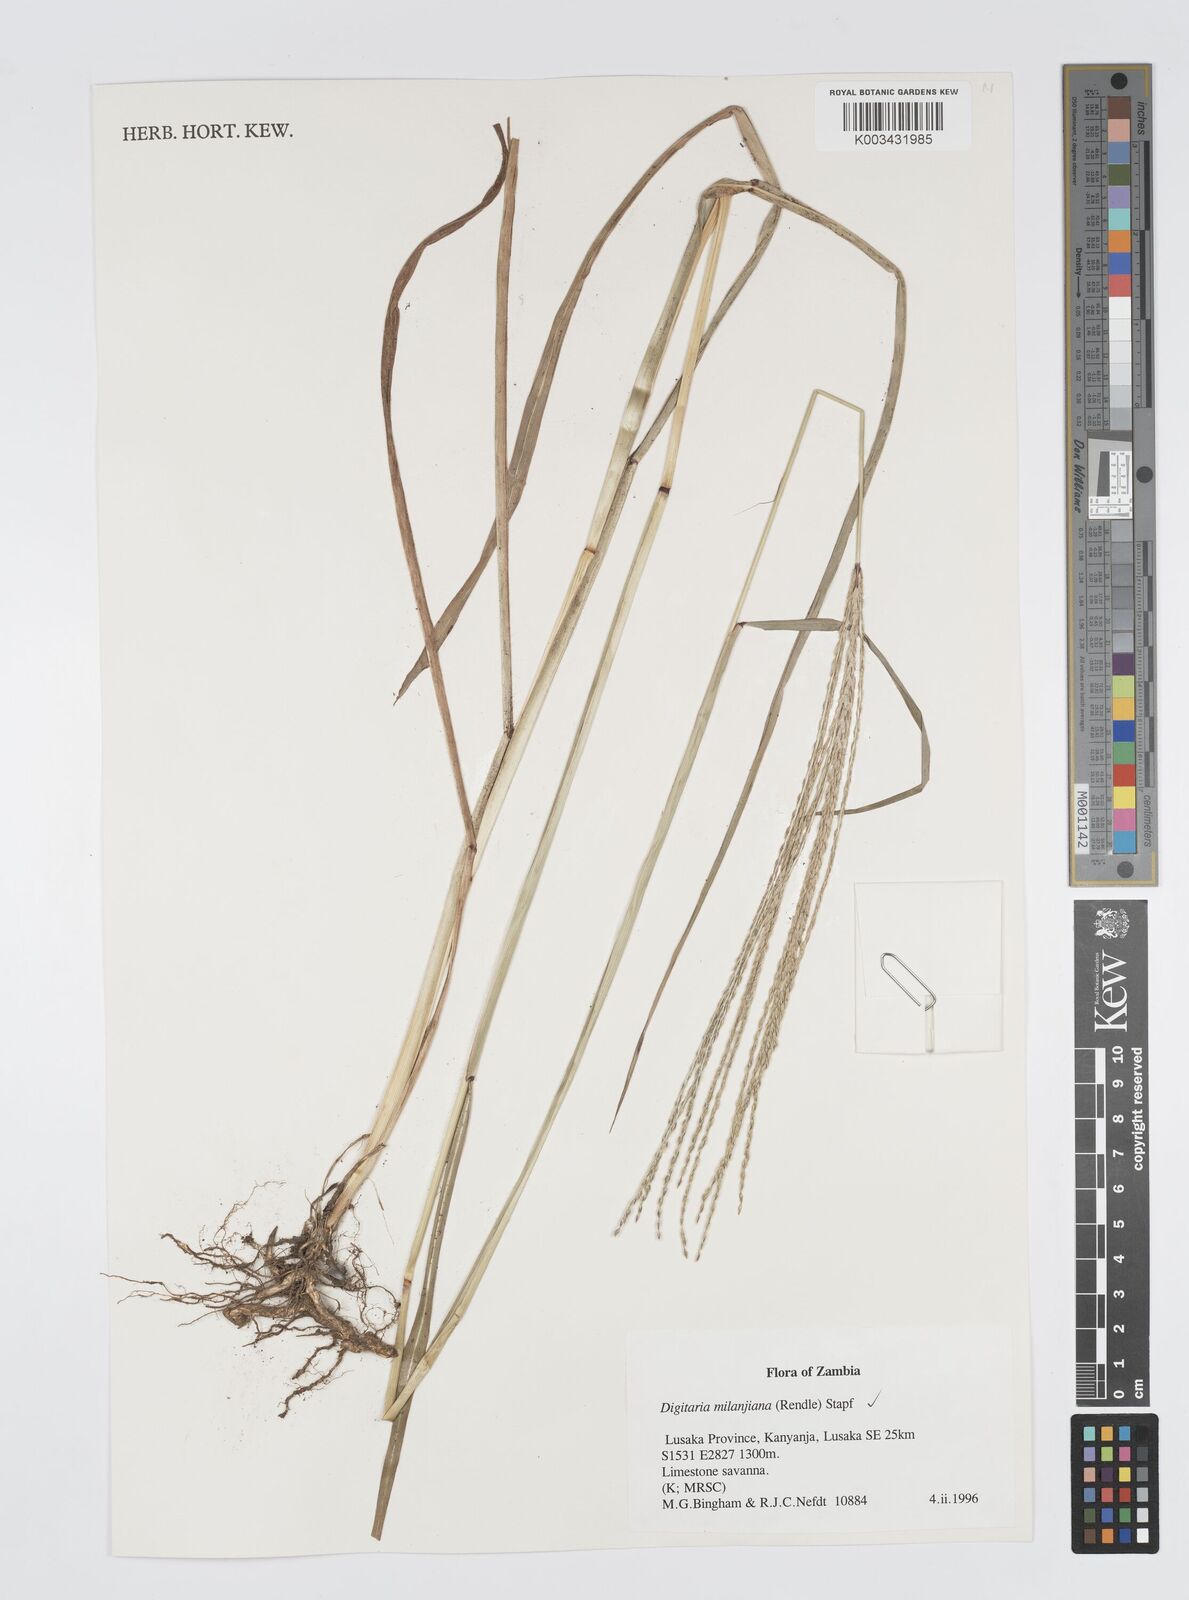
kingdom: Plantae
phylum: Tracheophyta
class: Liliopsida
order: Poales
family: Poaceae
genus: Digitaria
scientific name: Digitaria milanjiana
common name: Madagascar crabgrass
